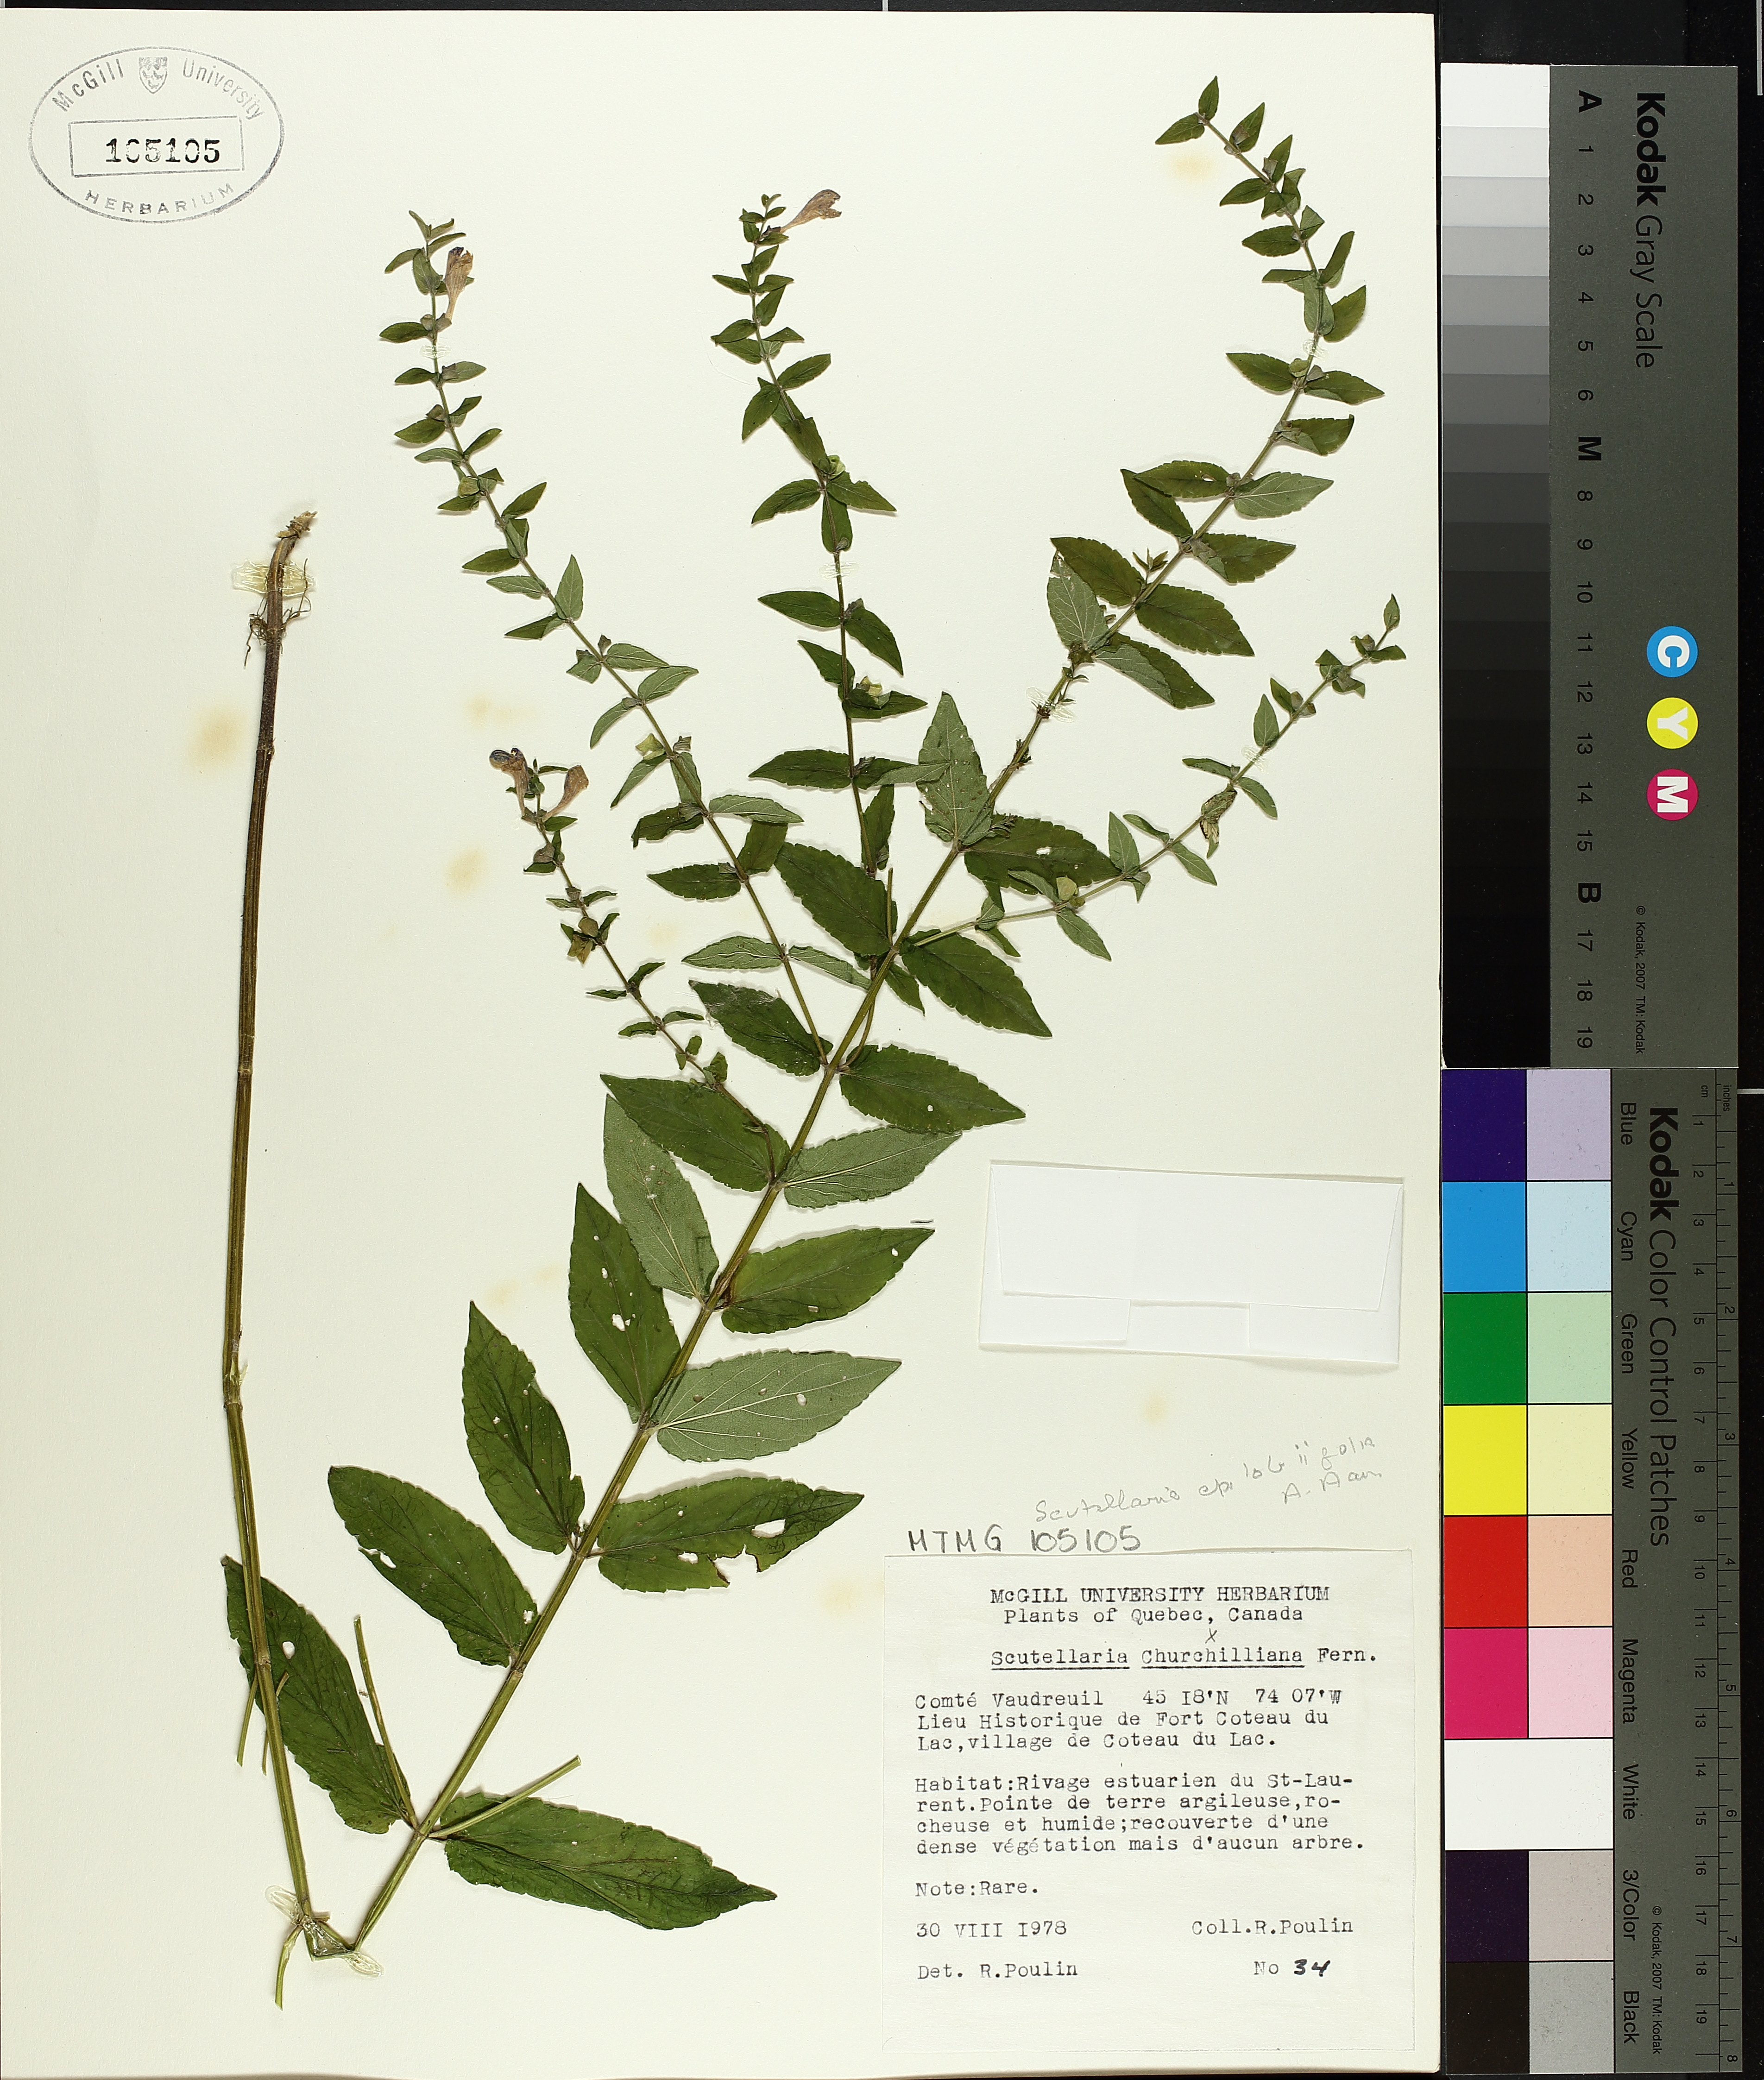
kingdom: Plantae
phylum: Tracheophyta
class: Magnoliopsida
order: Lamiales
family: Lamiaceae
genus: Scutellaria
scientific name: Scutellaria galericulata
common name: Skullcap
